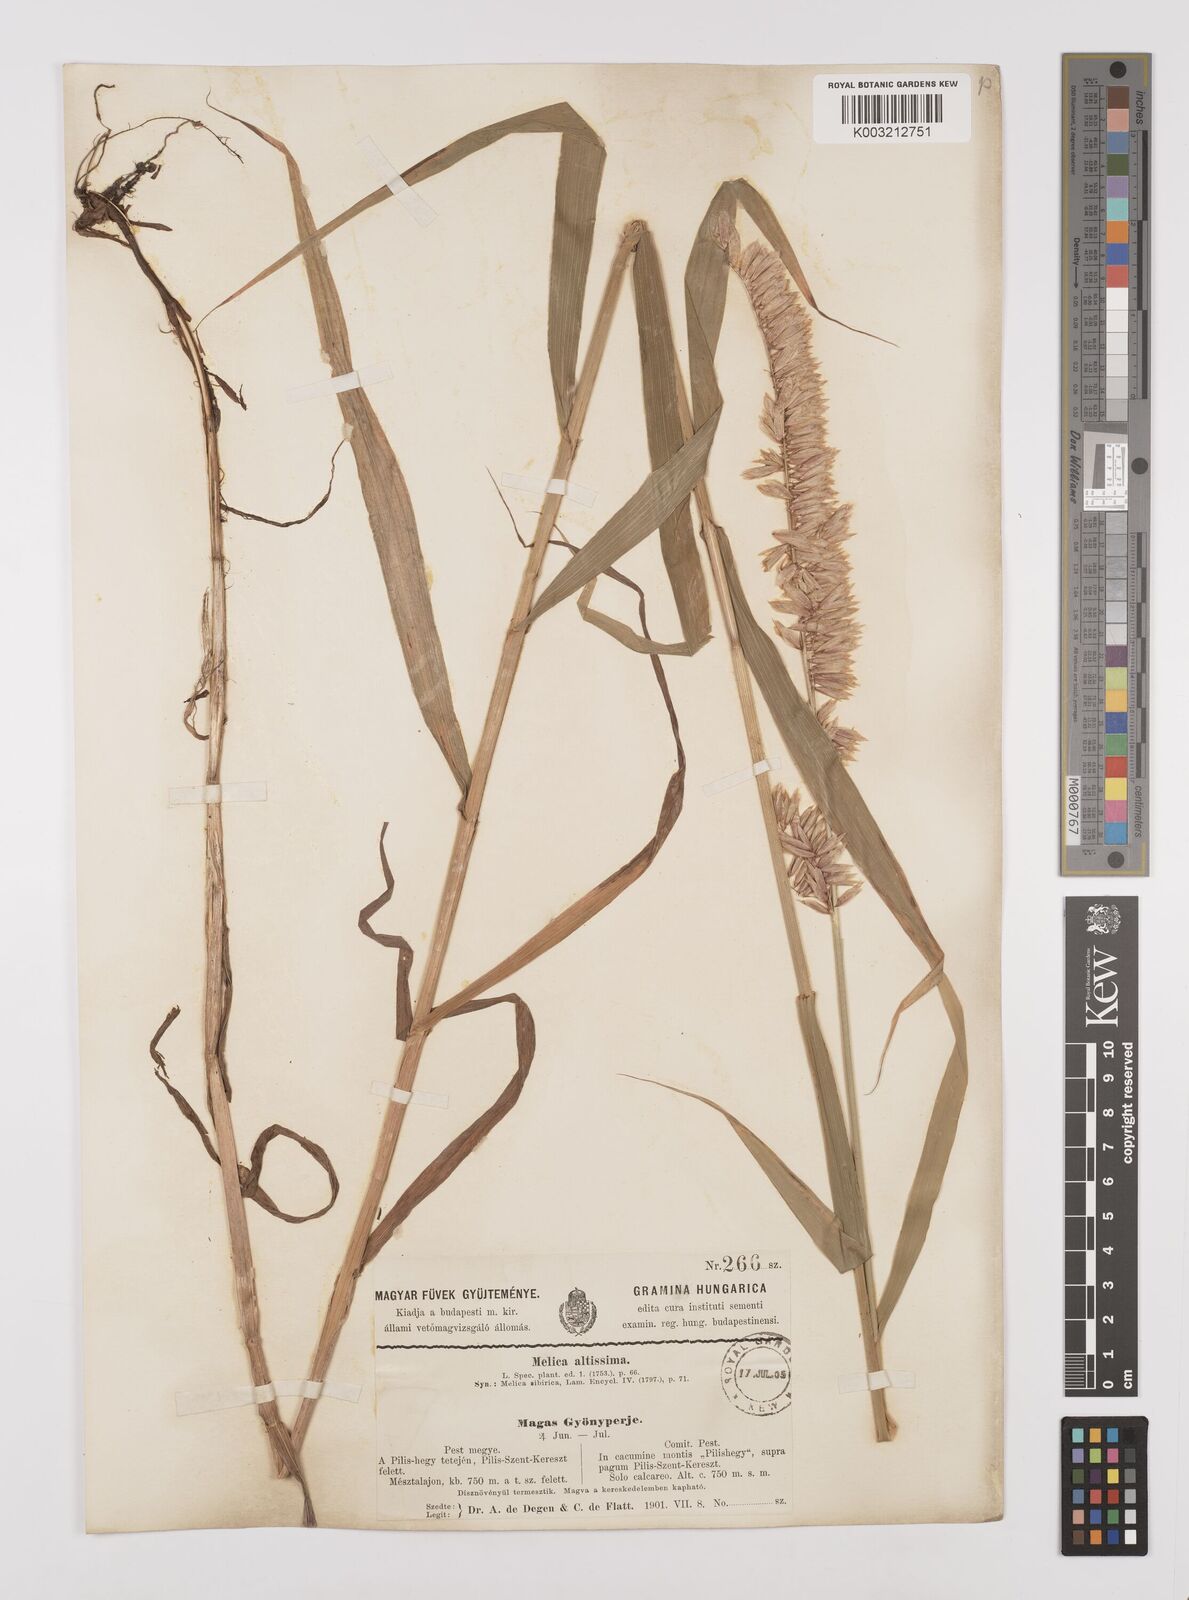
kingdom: Plantae
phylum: Tracheophyta
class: Liliopsida
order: Poales
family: Poaceae
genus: Melica
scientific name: Melica altissima
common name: Siberian melicgrass
